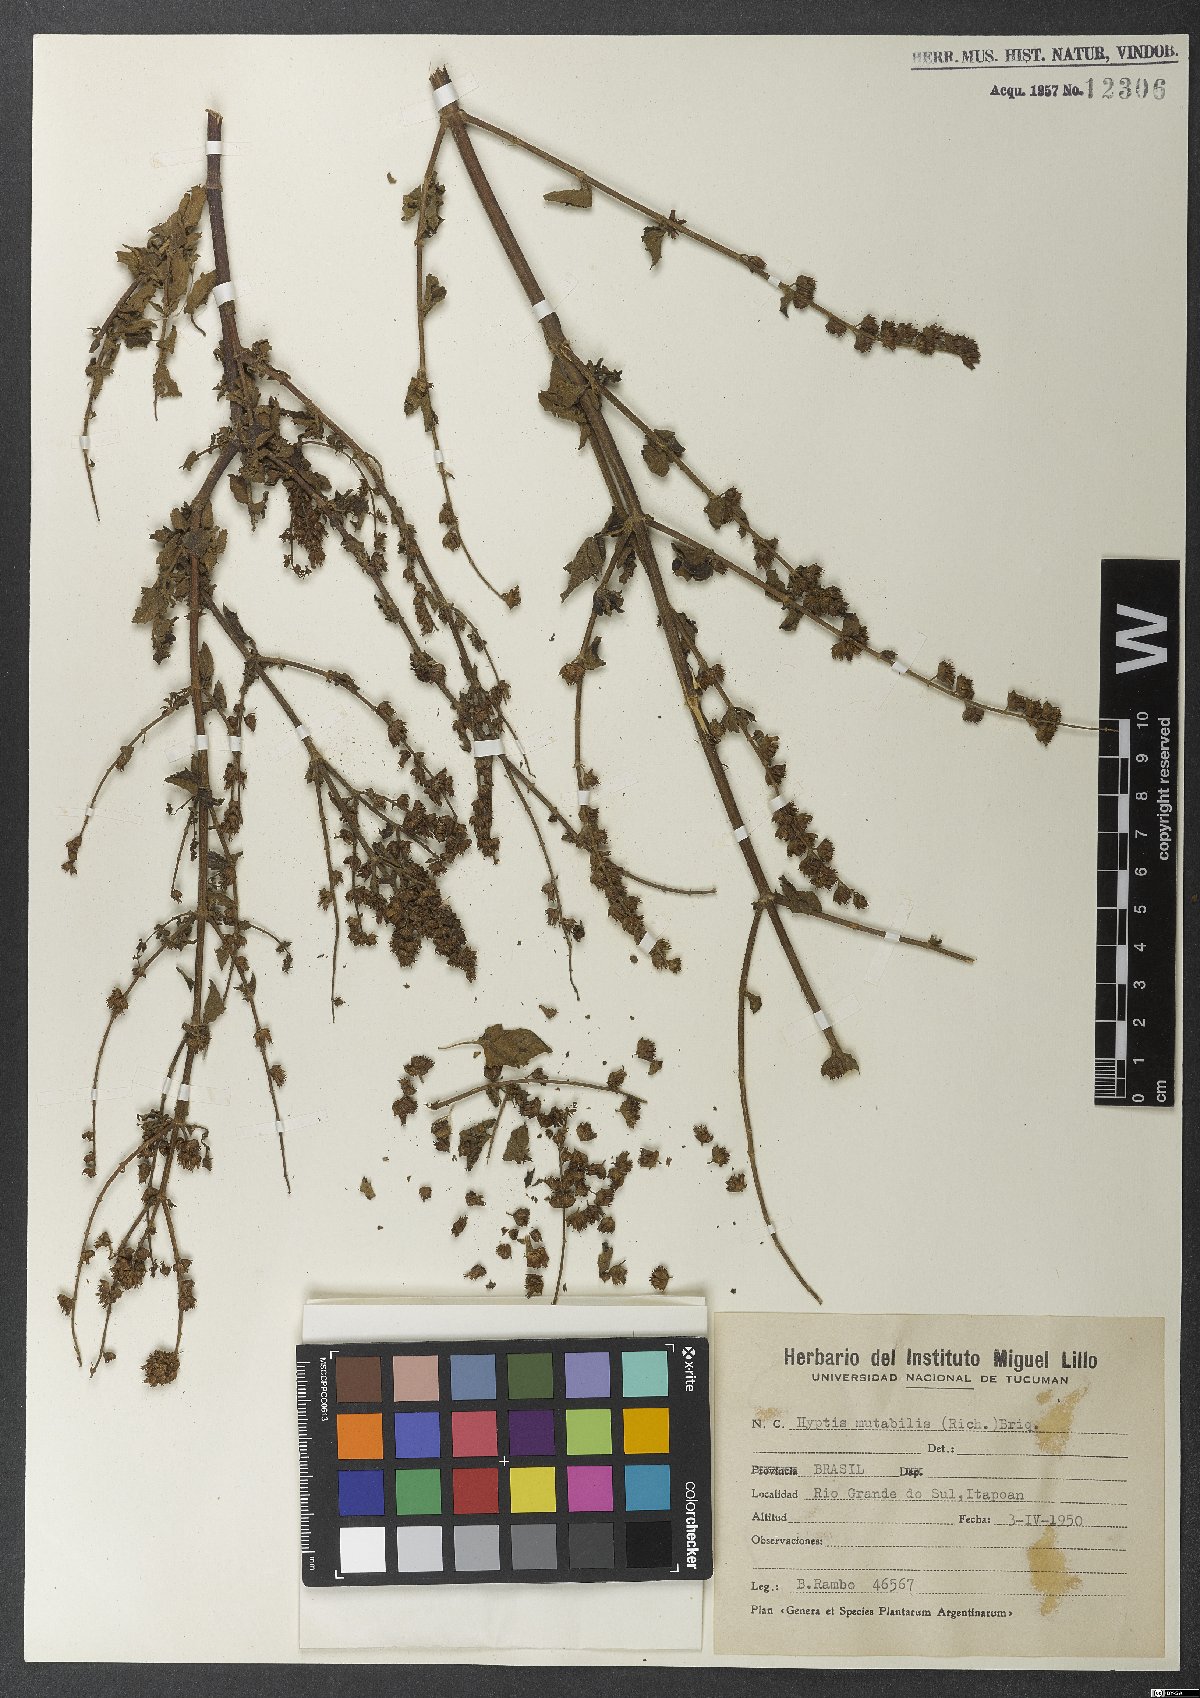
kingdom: Plantae
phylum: Tracheophyta
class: Magnoliopsida
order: Lamiales
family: Lamiaceae
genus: Cantinoa
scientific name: Cantinoa mutabilis
